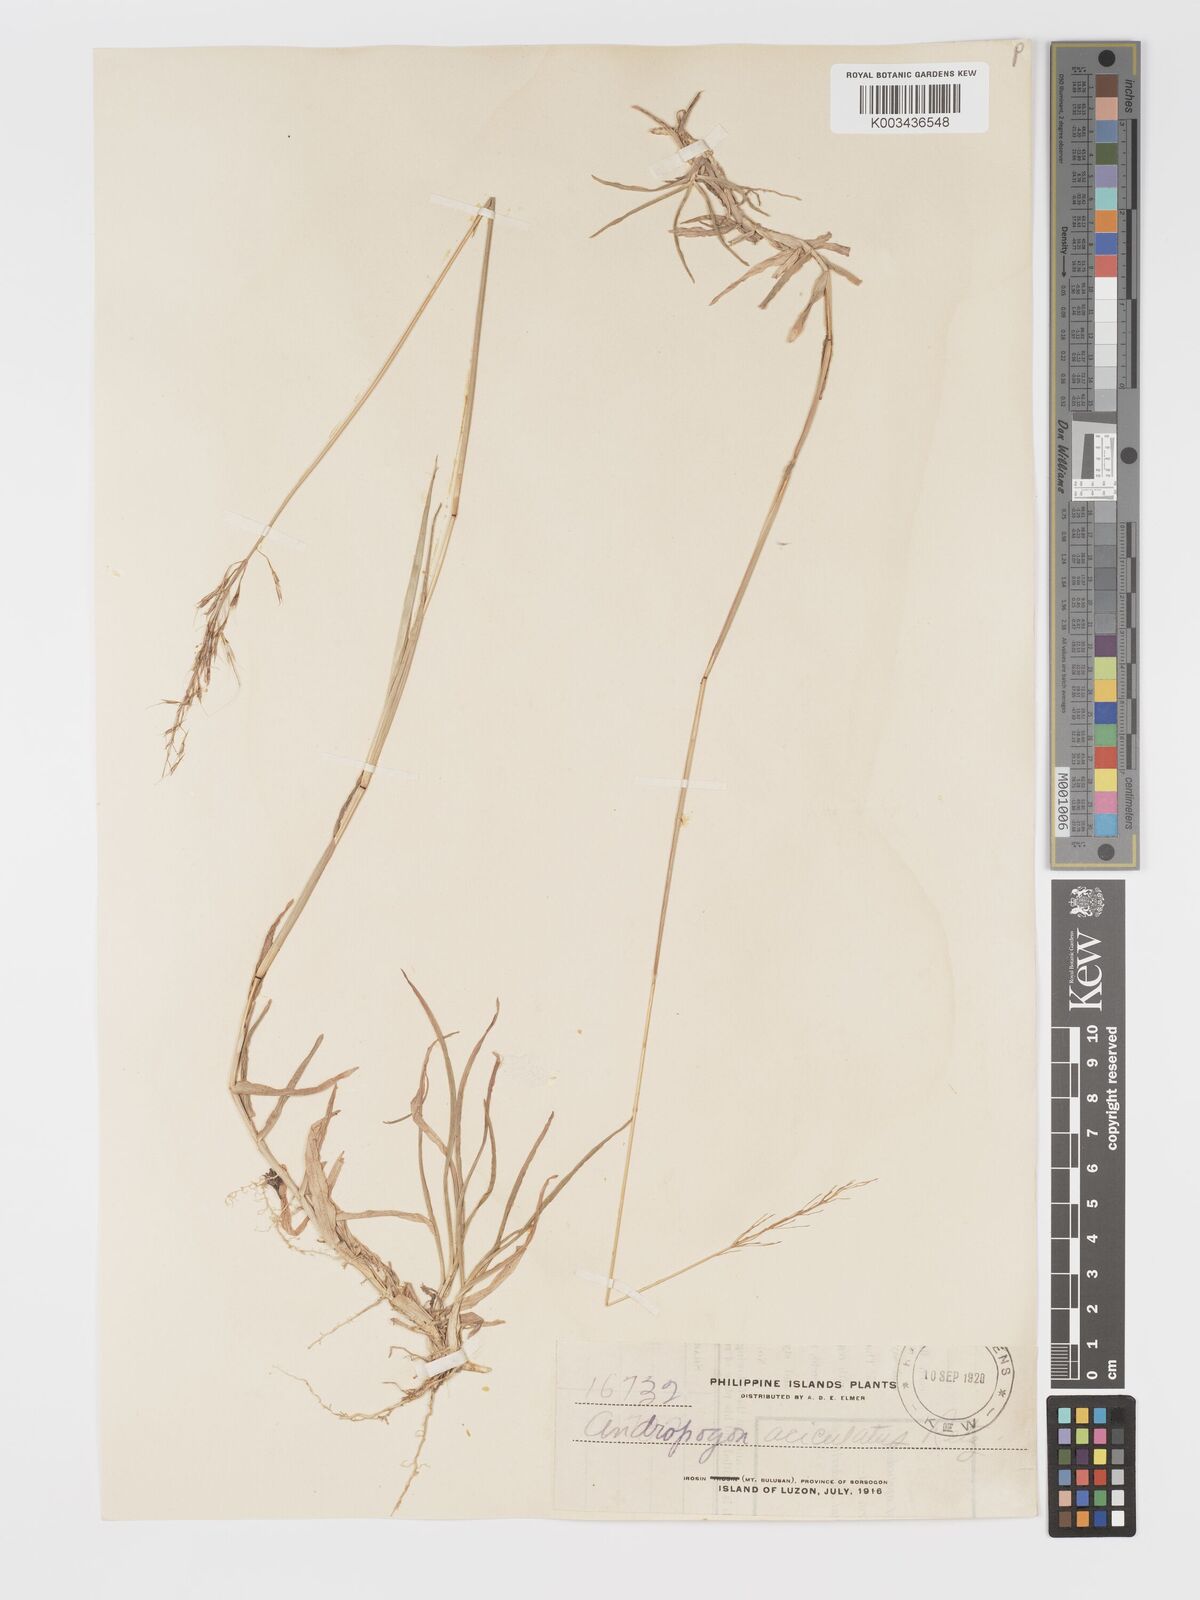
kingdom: Plantae
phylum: Tracheophyta
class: Liliopsida
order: Poales
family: Poaceae
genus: Chrysopogon
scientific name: Chrysopogon aciculatus
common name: Pilipiliula
